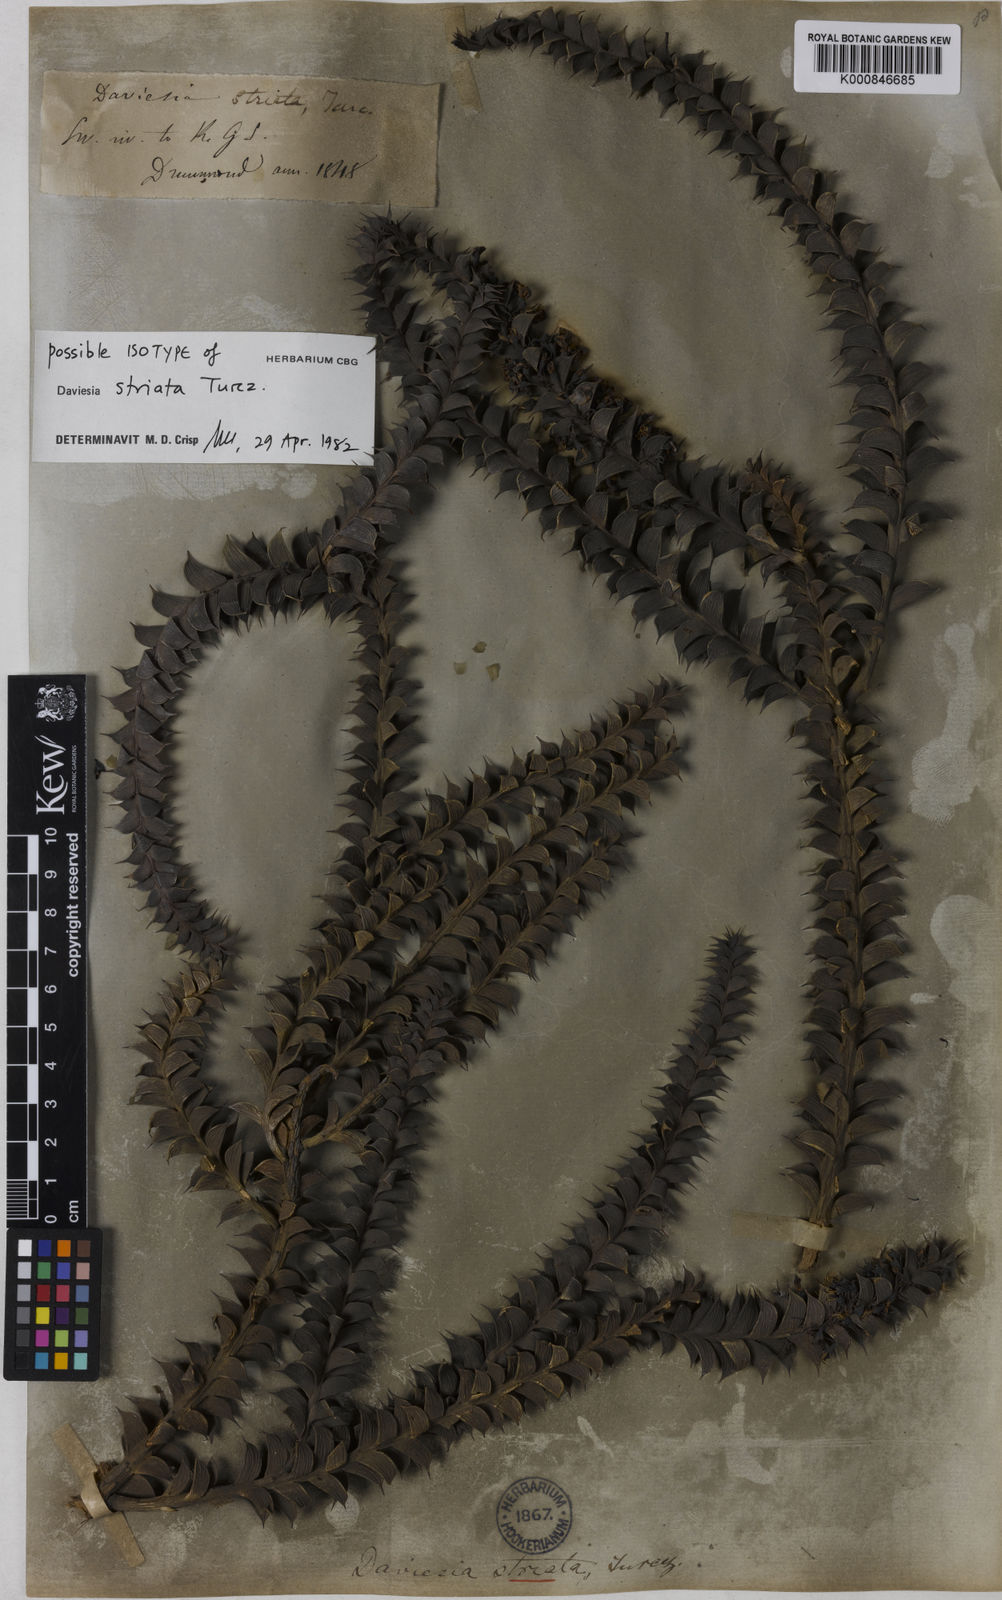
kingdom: Plantae
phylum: Tracheophyta
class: Magnoliopsida
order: Fabales
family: Fabaceae
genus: Daviesia
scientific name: Daviesia striata
